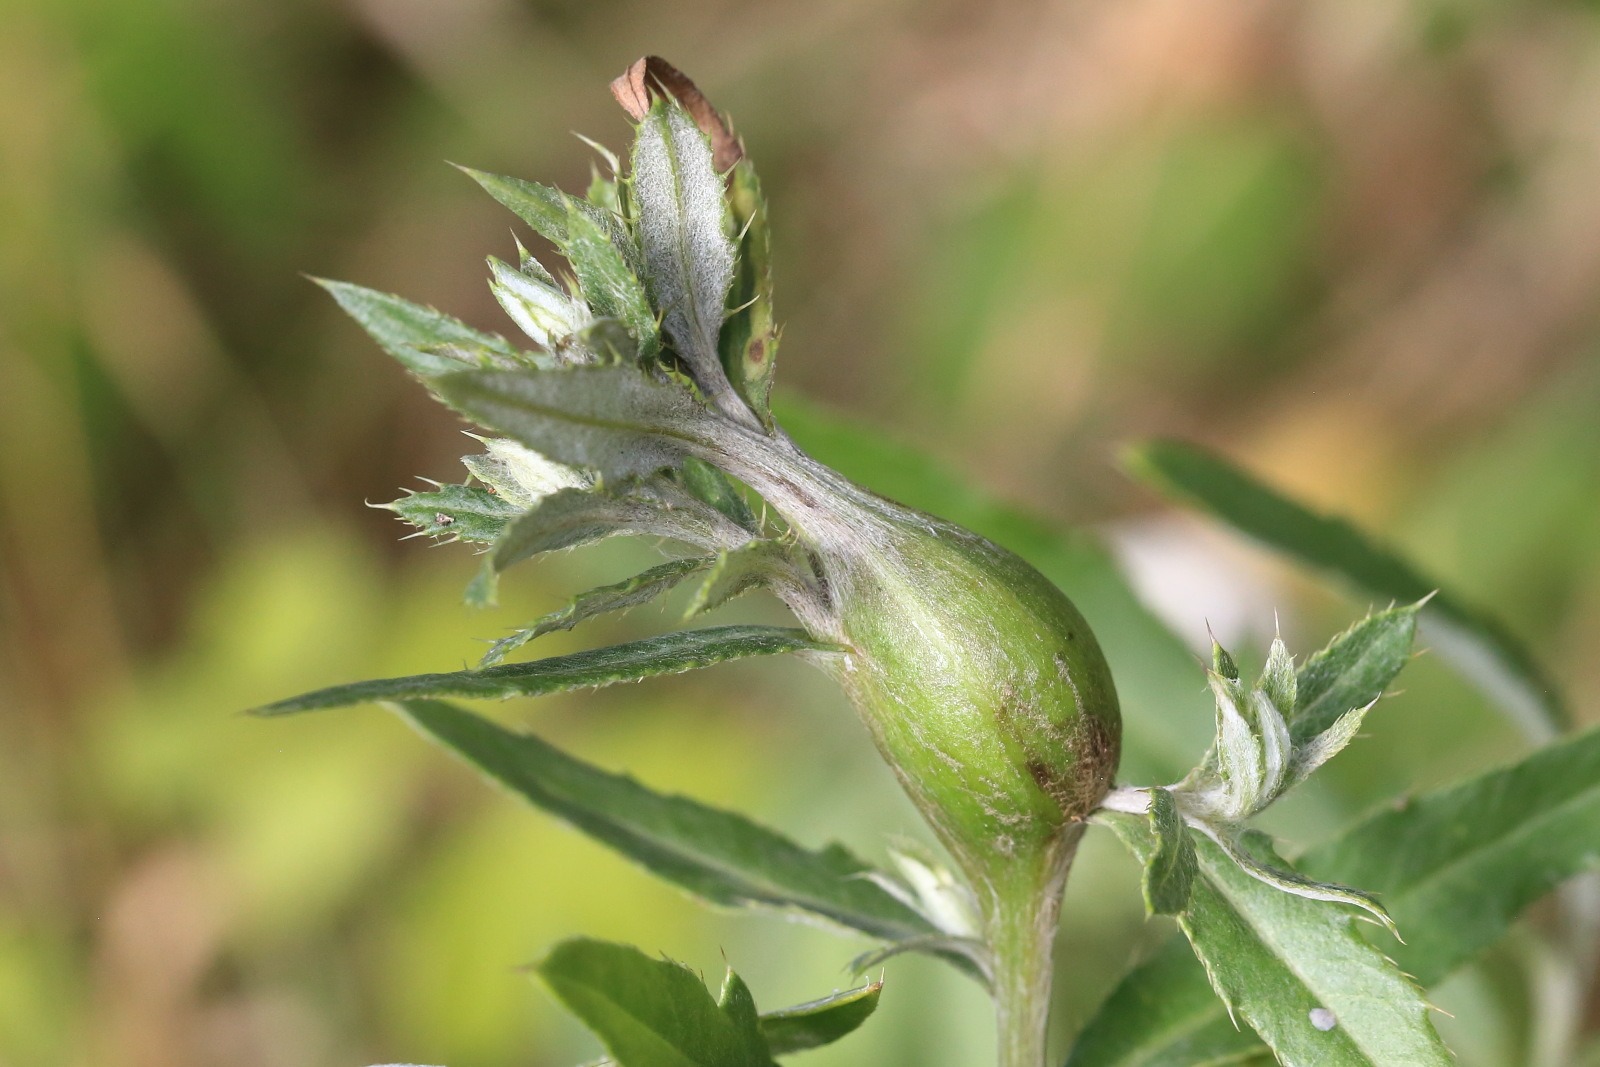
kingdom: Animalia
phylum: Arthropoda
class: Insecta
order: Diptera
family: Tephritidae
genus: Urophora
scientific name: Urophora cardui
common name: Tidselbåndflue
